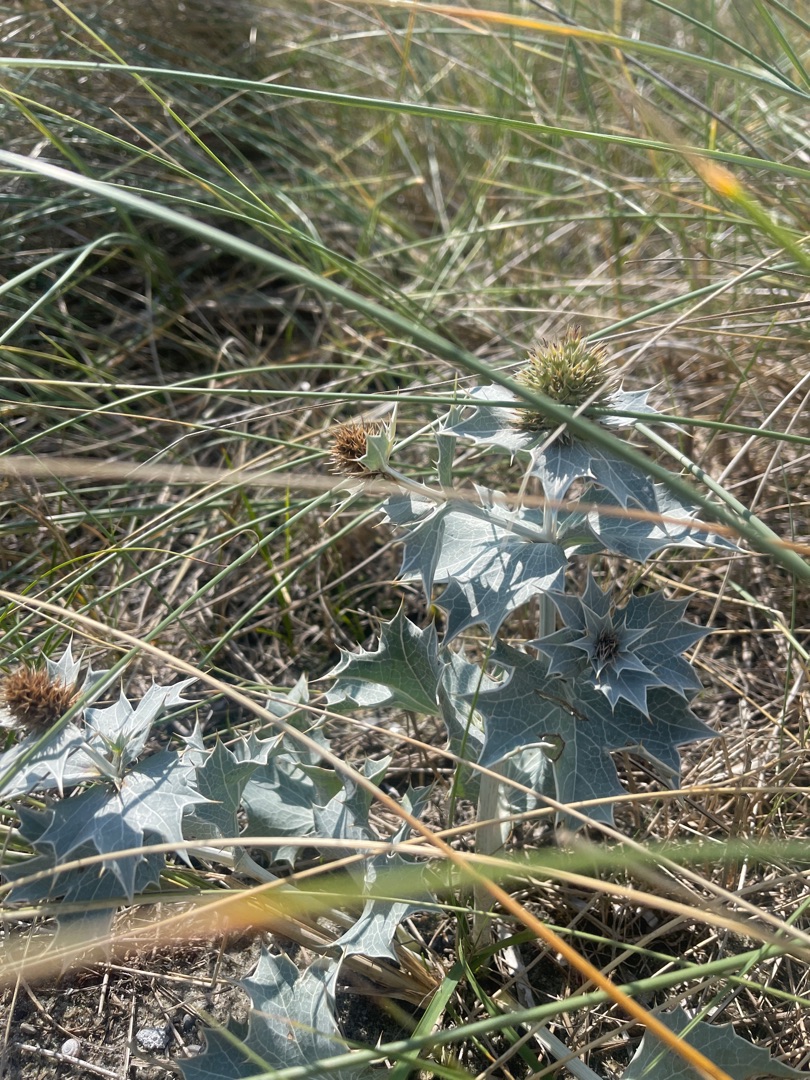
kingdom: Plantae
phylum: Tracheophyta
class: Magnoliopsida
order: Apiales
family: Apiaceae
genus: Eryngium
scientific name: Eryngium maritimum
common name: Strand-mandstro
